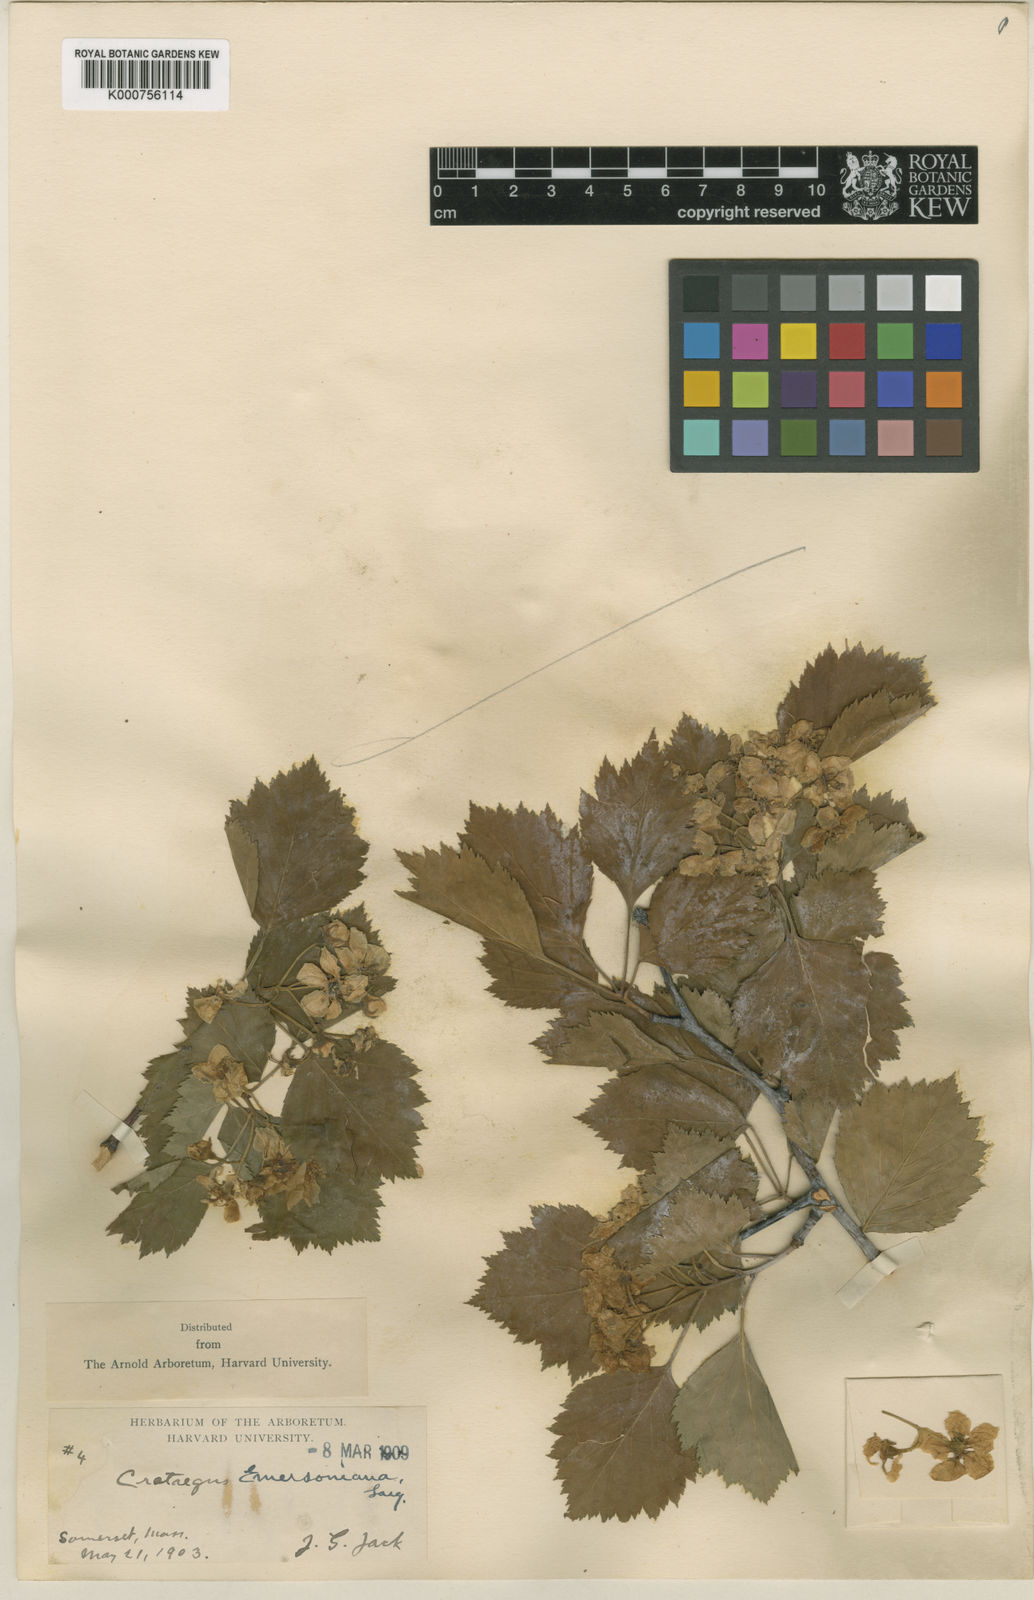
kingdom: Plantae
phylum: Tracheophyta
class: Magnoliopsida
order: Rosales
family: Rosaceae
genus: Crataegus
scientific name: Crataegus emersoniana
